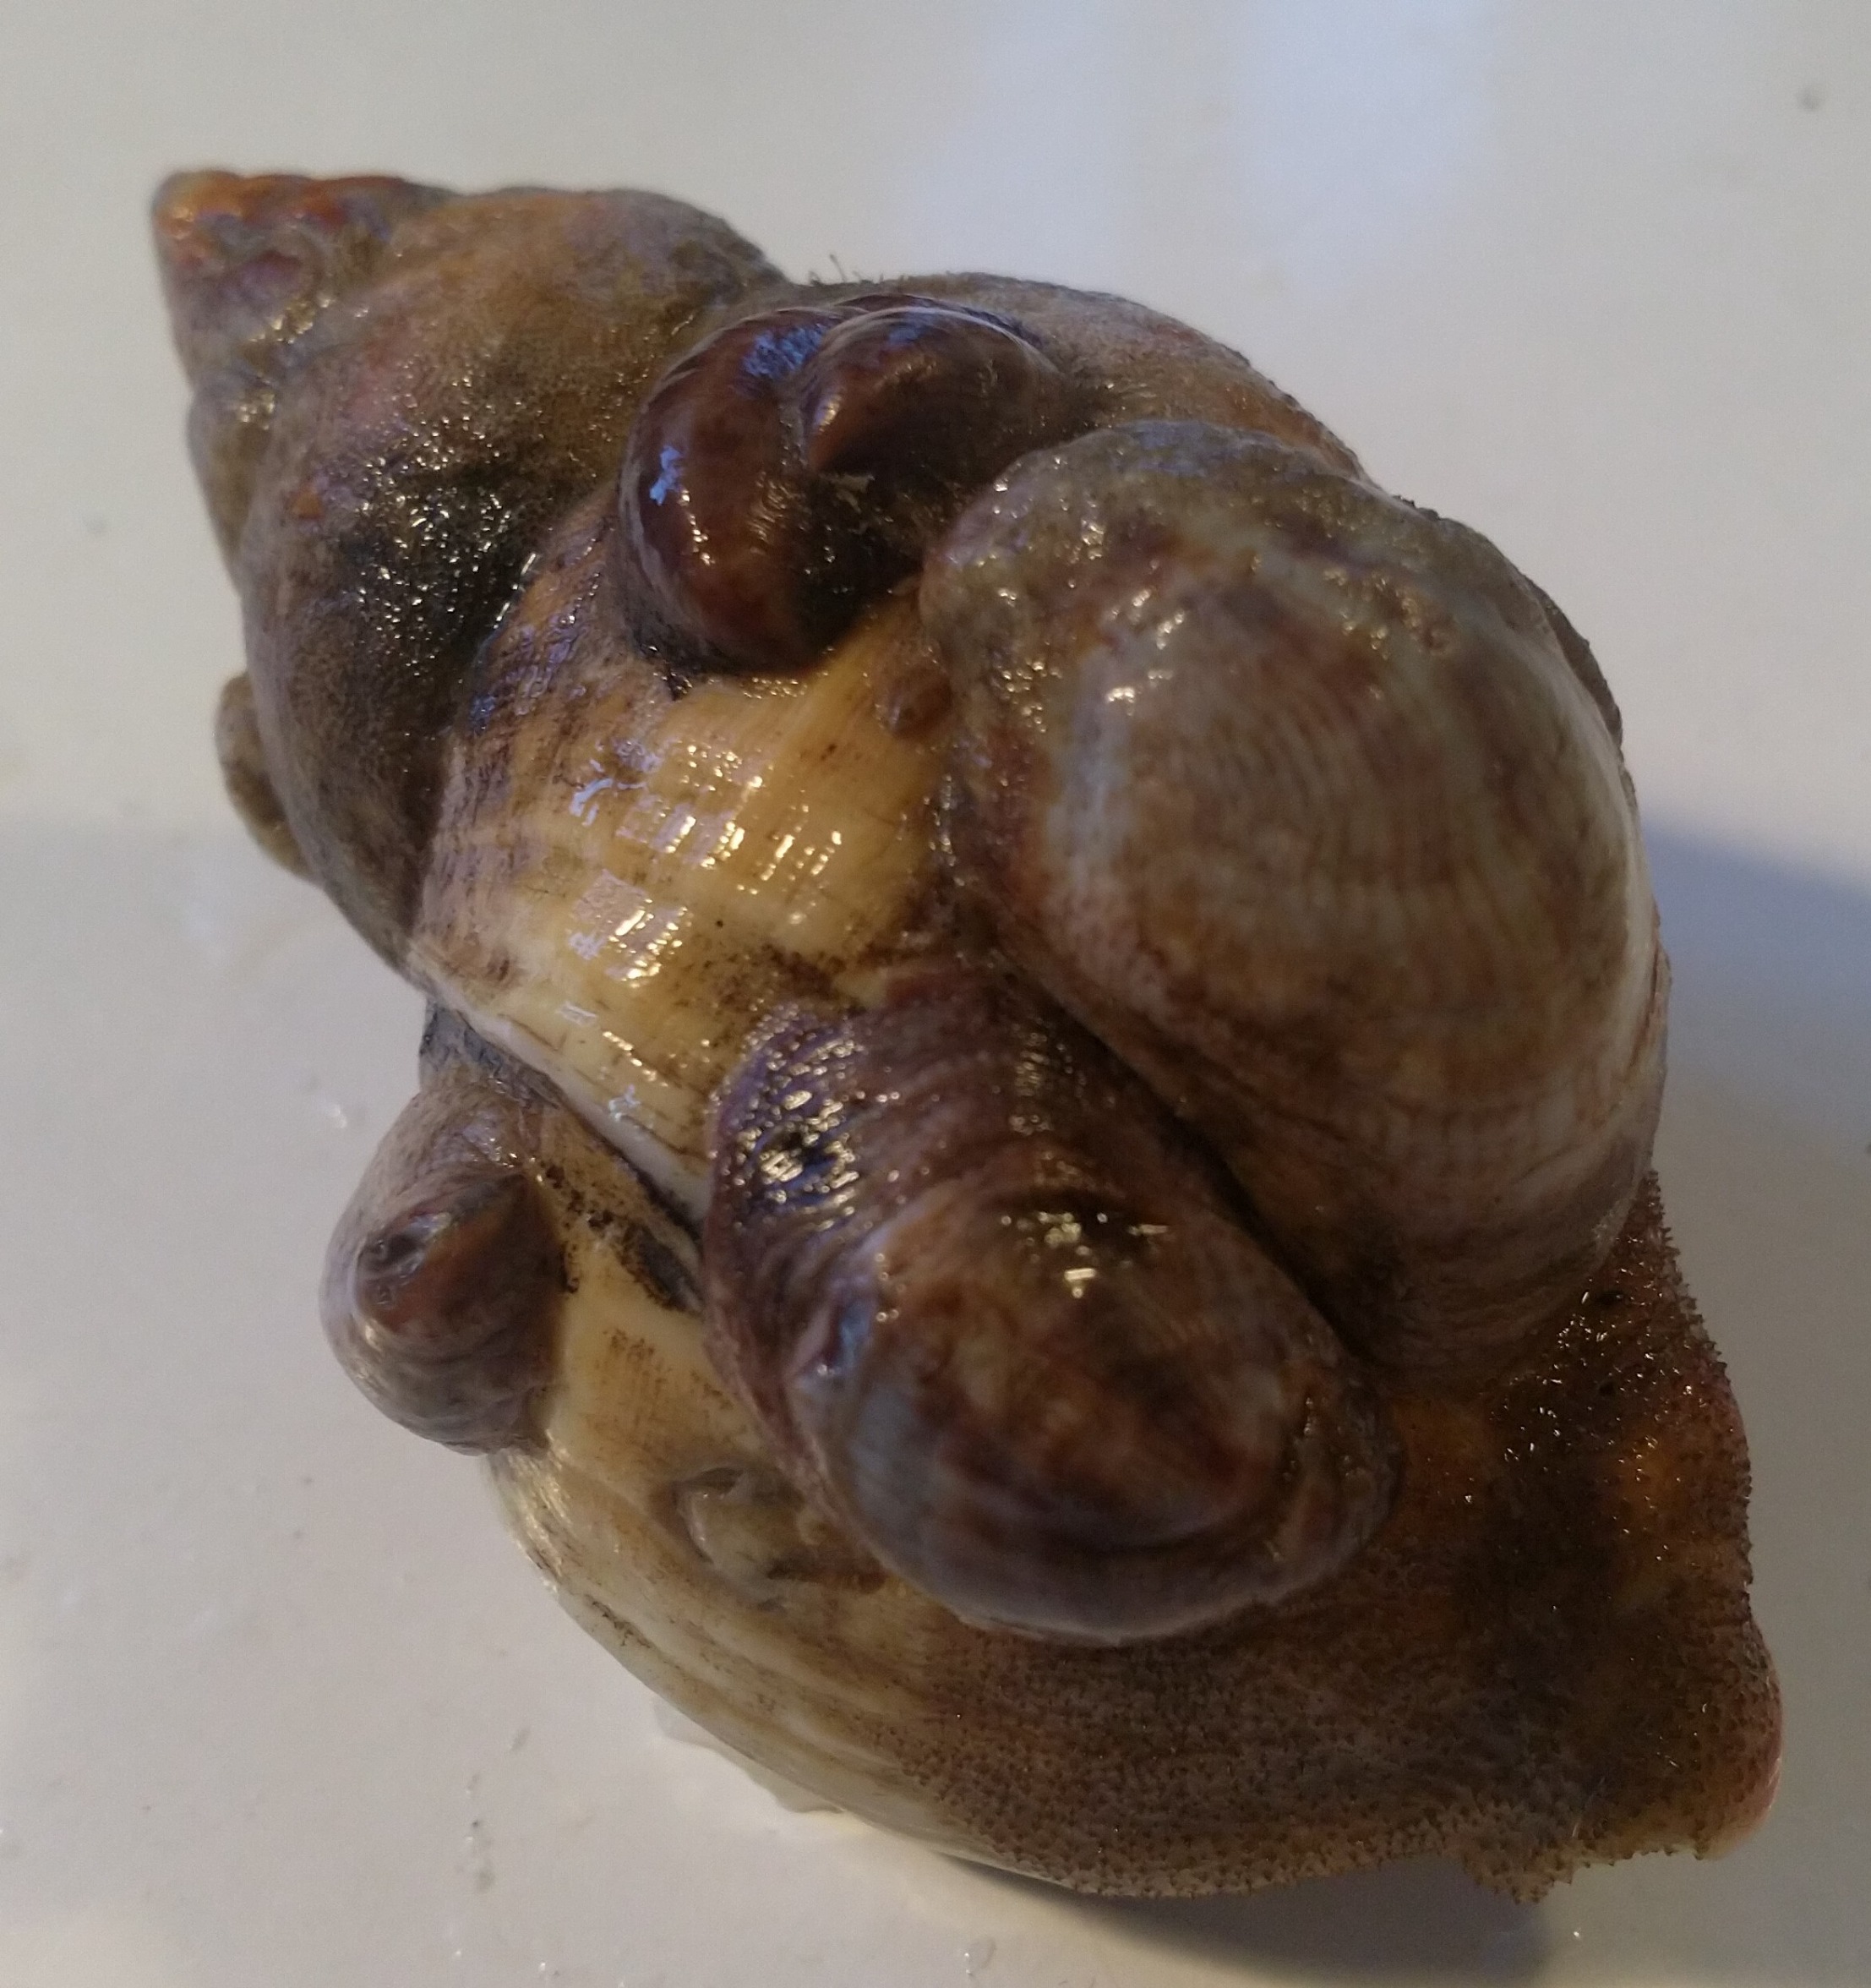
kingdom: Animalia
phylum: Mollusca
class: Gastropoda
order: Littorinimorpha
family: Calyptraeidae
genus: Crepidula
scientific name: Crepidula fornicata
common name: Tøffelsnegl
